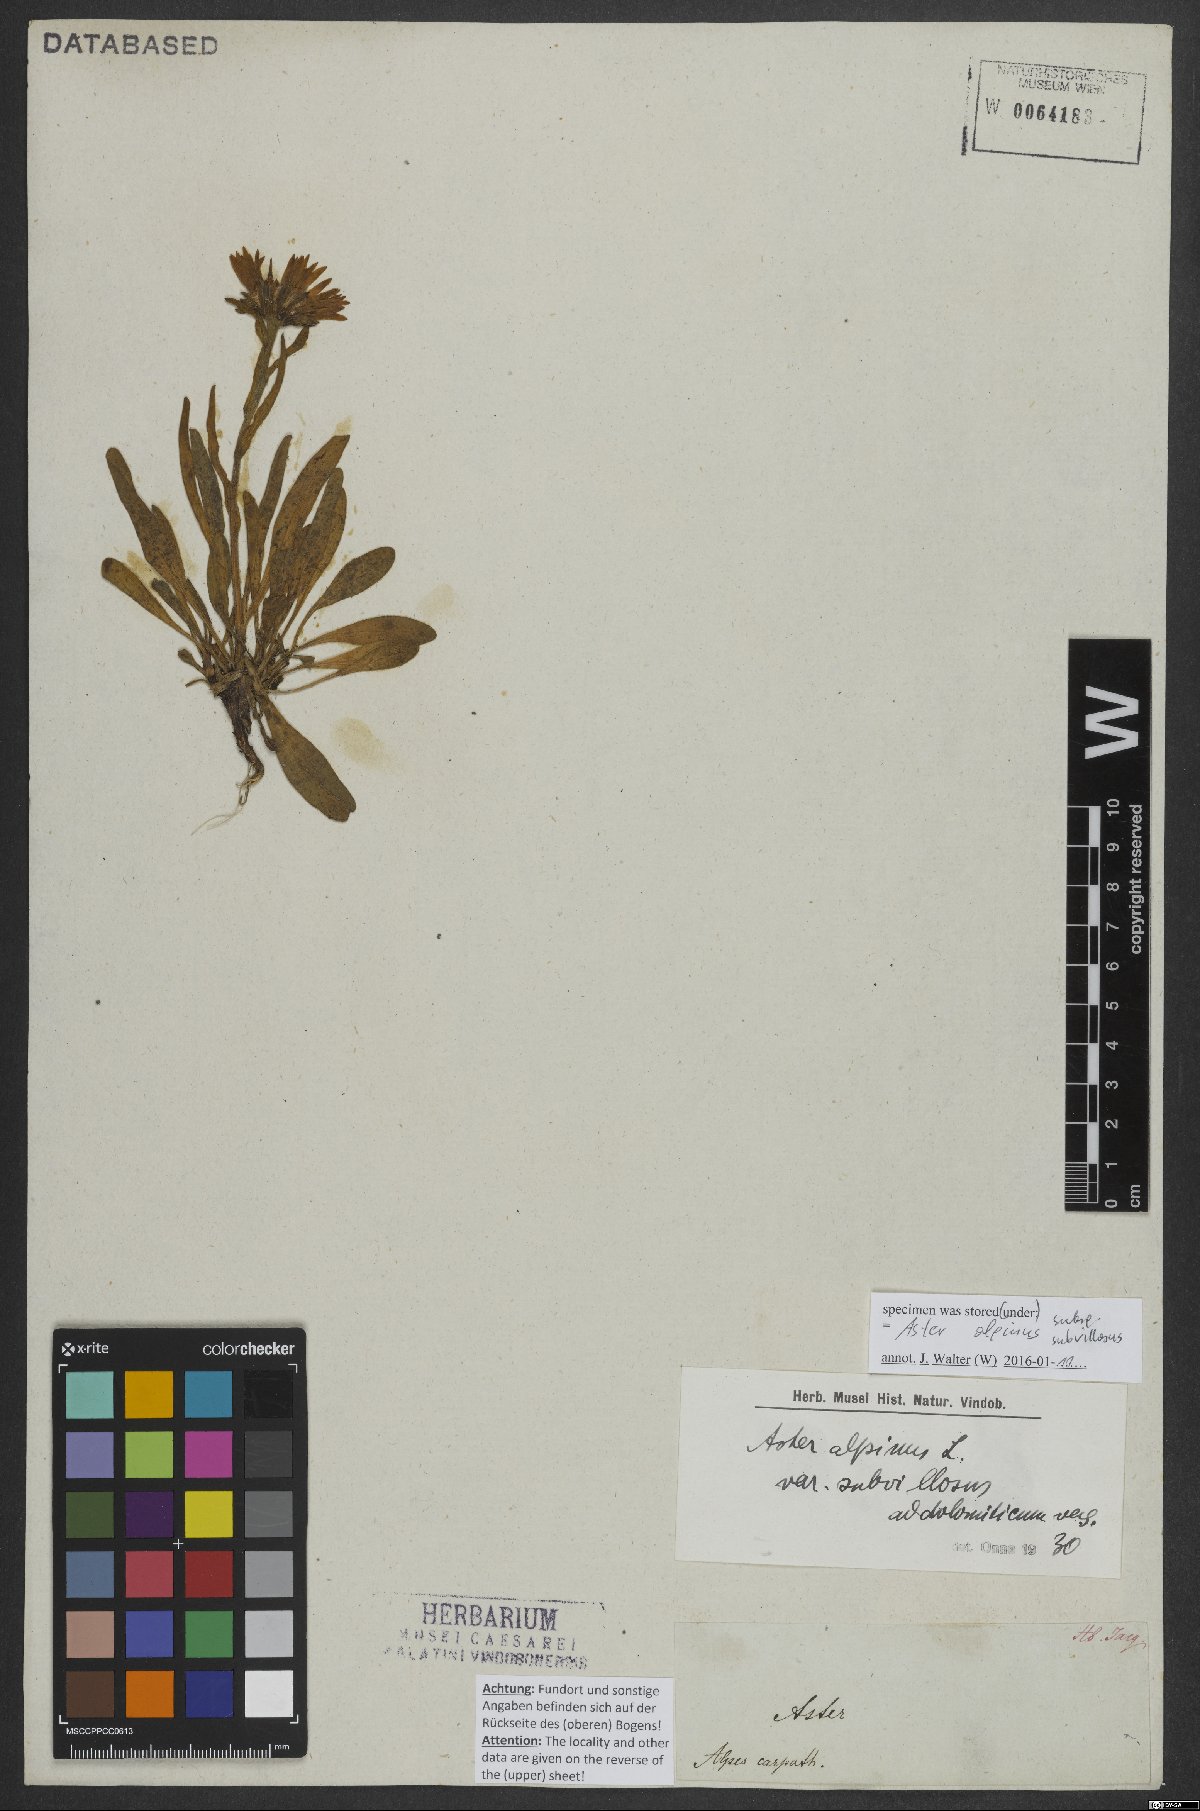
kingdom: Plantae
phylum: Tracheophyta
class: Magnoliopsida
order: Asterales
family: Asteraceae
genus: Aster
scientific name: Aster alpinus
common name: Alpine aster
